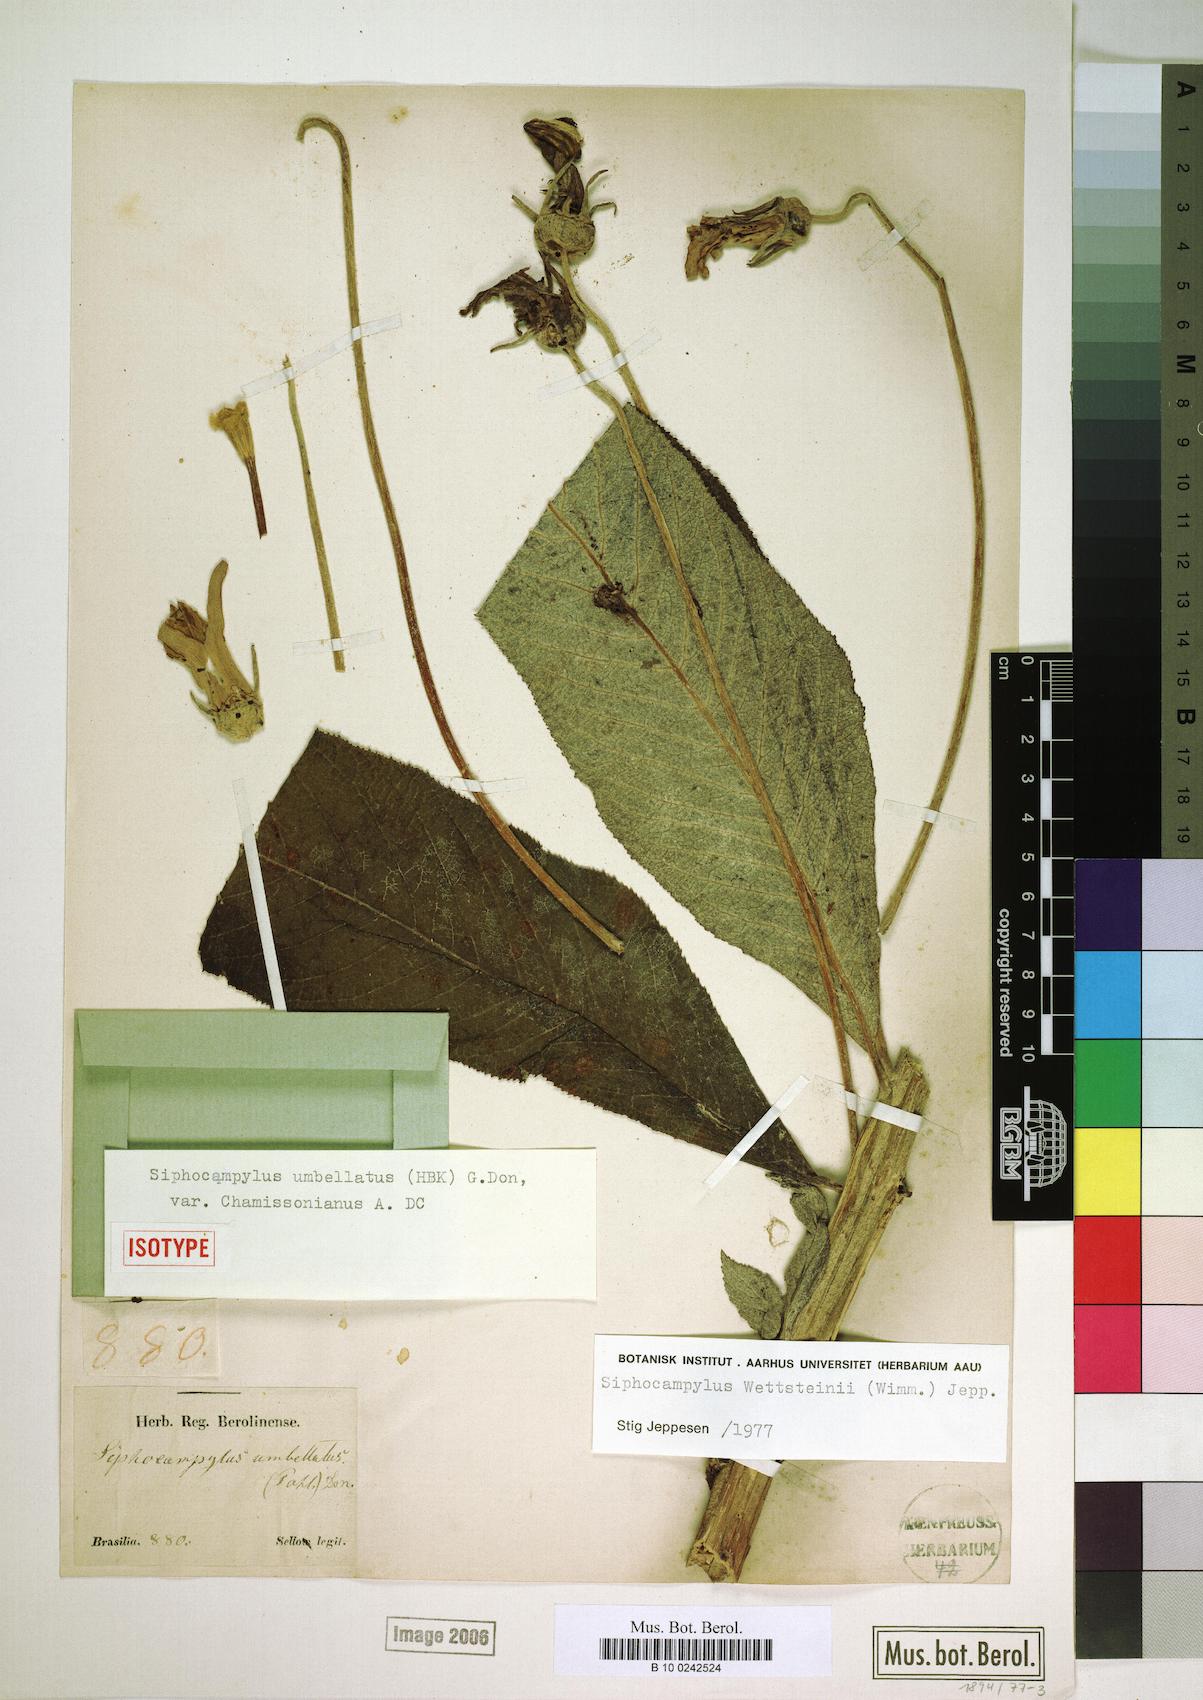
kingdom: Plantae
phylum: Tracheophyta
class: Magnoliopsida
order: Asterales
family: Campanulaceae
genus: Siphocampylus
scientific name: Siphocampylus
